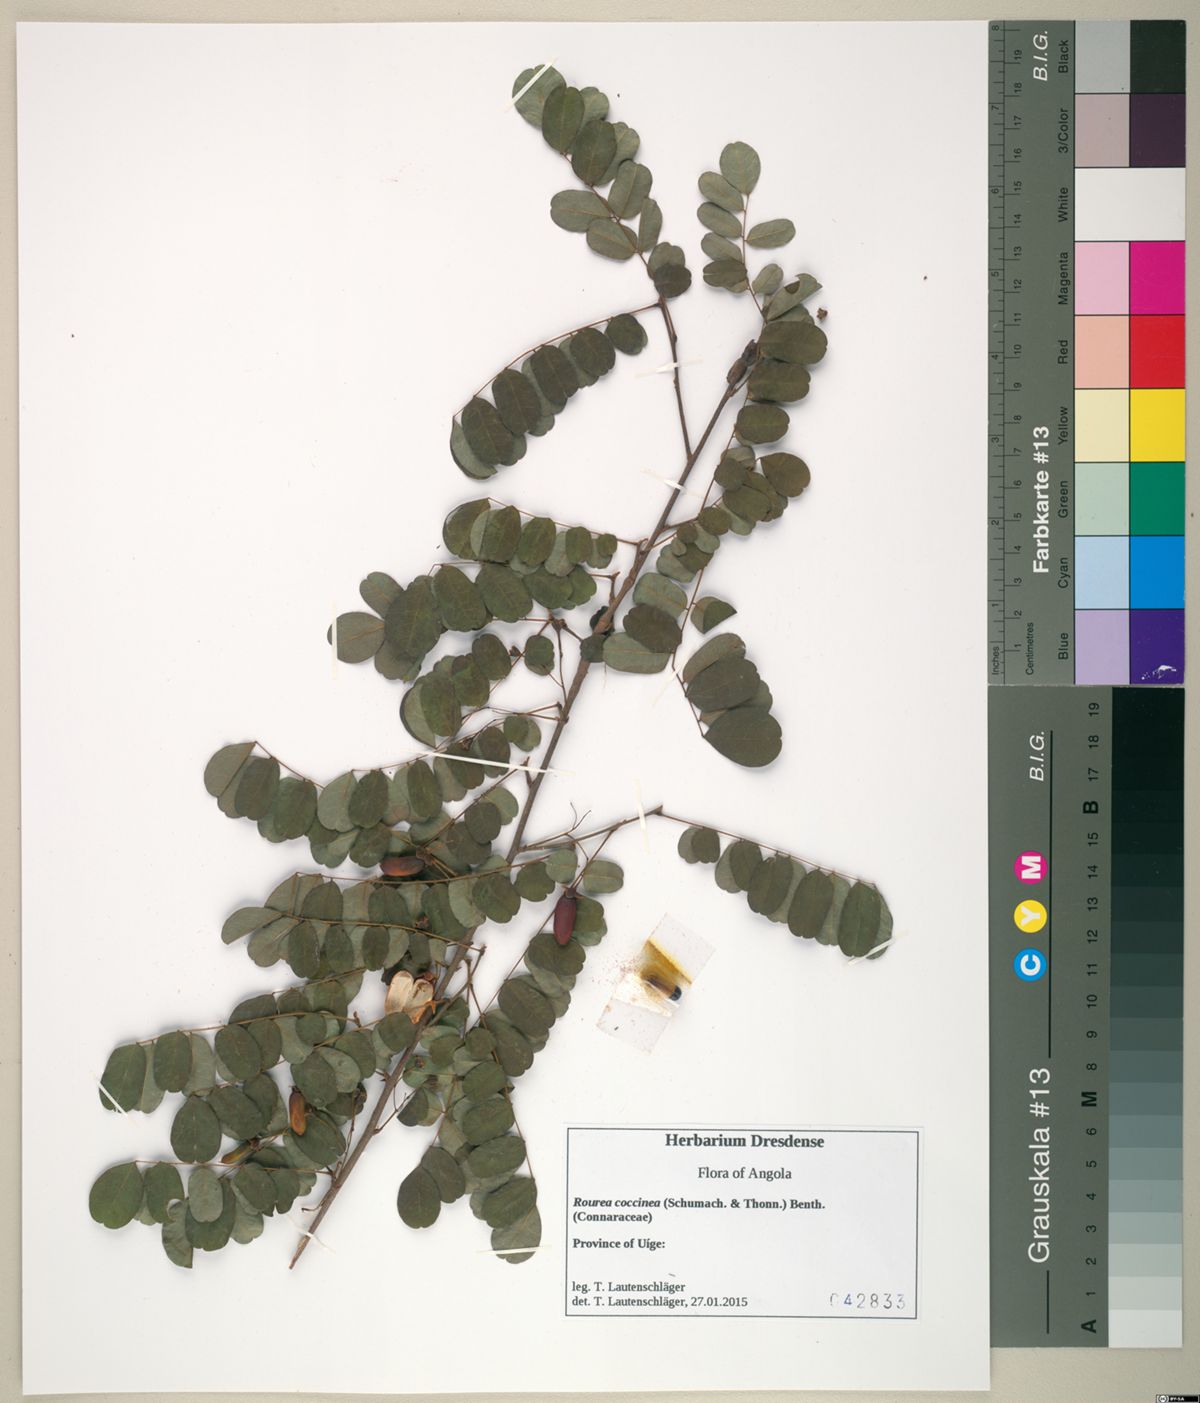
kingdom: Plantae
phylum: Tracheophyta
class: Magnoliopsida
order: Oxalidales
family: Connaraceae
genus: Rourea
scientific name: Rourea coccinea
